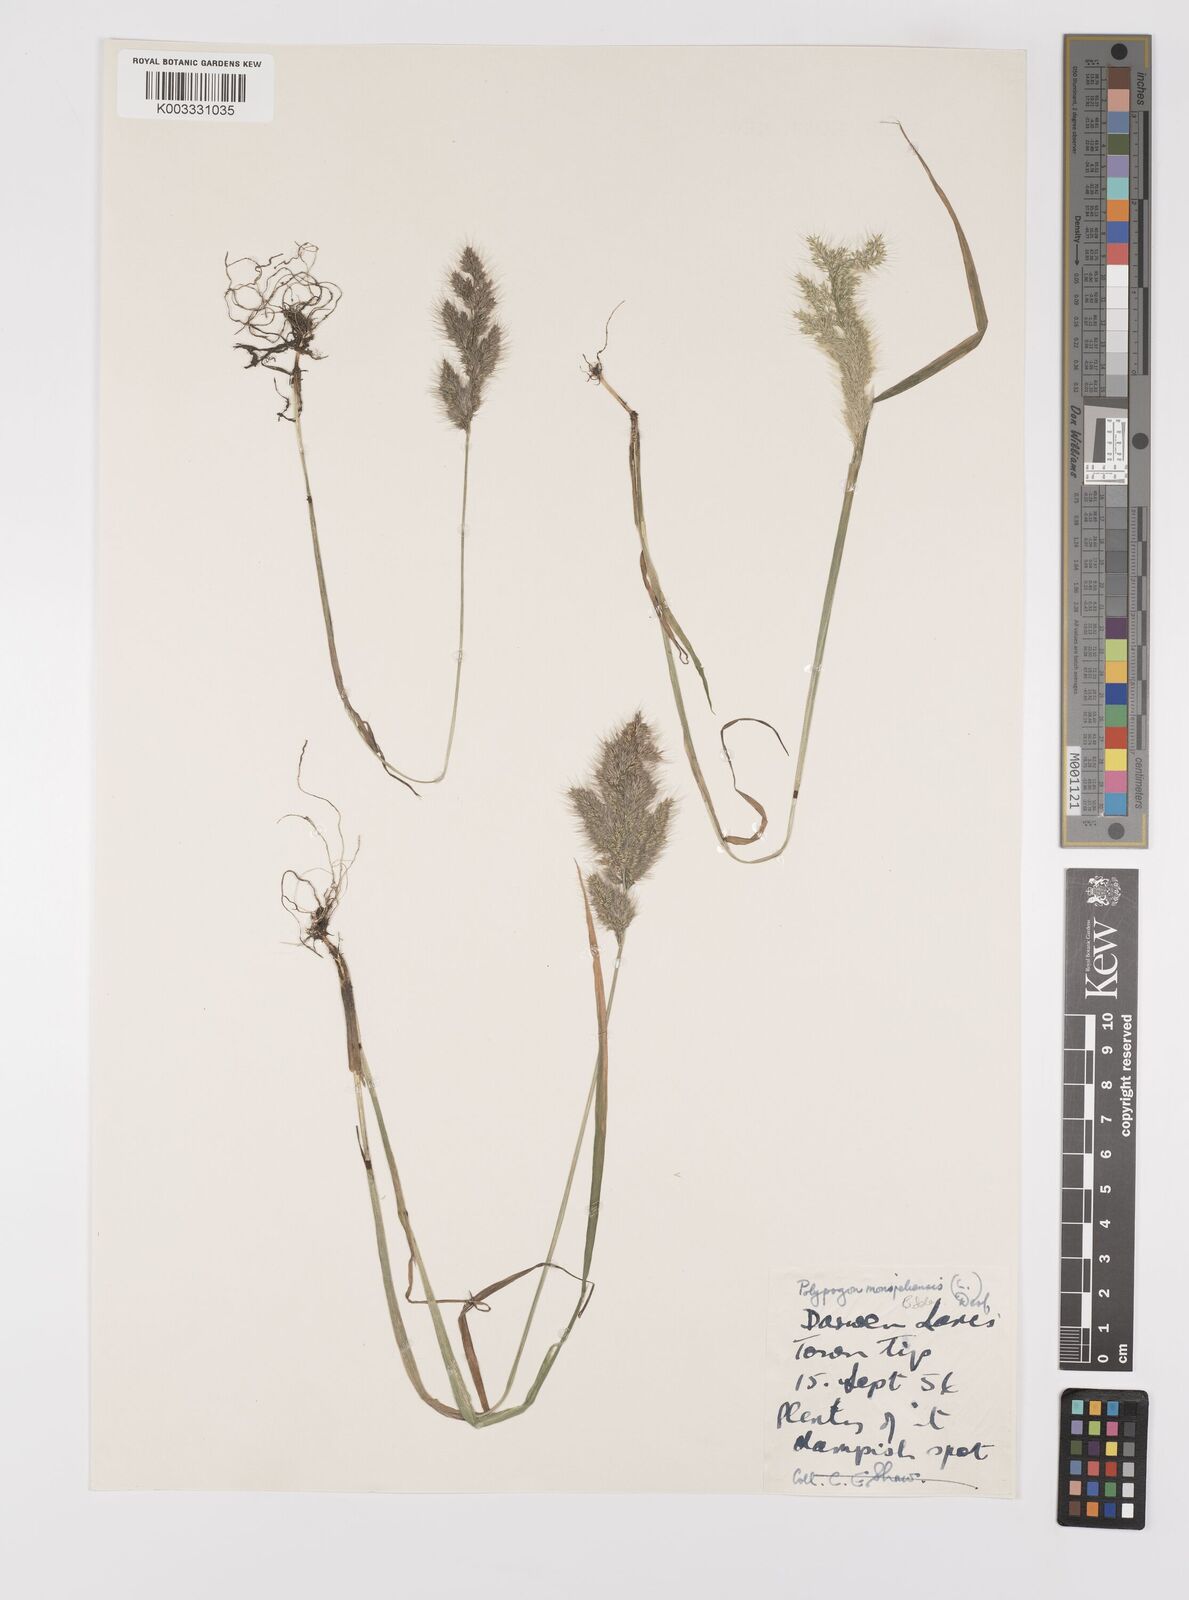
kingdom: Plantae
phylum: Tracheophyta
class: Liliopsida
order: Poales
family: Poaceae
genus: Polypogon
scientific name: Polypogon monspeliensis
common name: Annual rabbitsfoot grass
